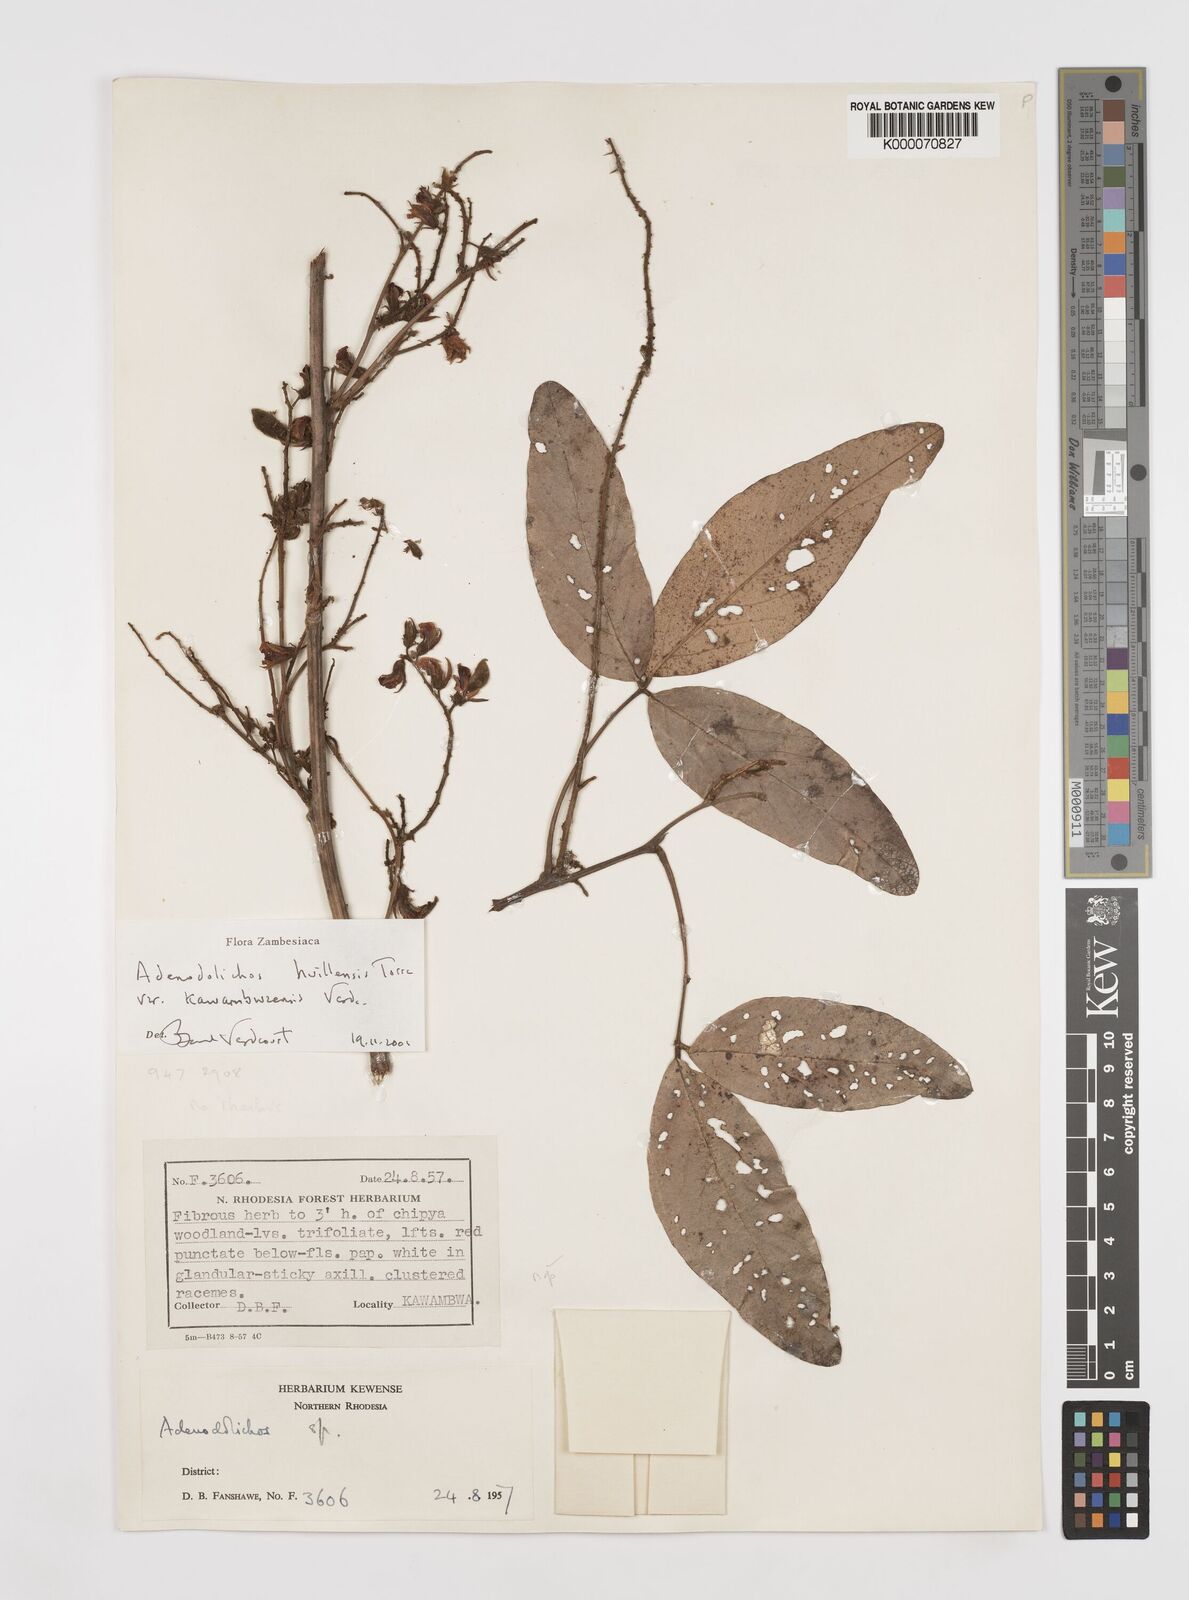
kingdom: Plantae
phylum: Tracheophyta
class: Magnoliopsida
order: Fabales
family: Fabaceae
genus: Adenodolichos
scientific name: Adenodolichos huillensis
